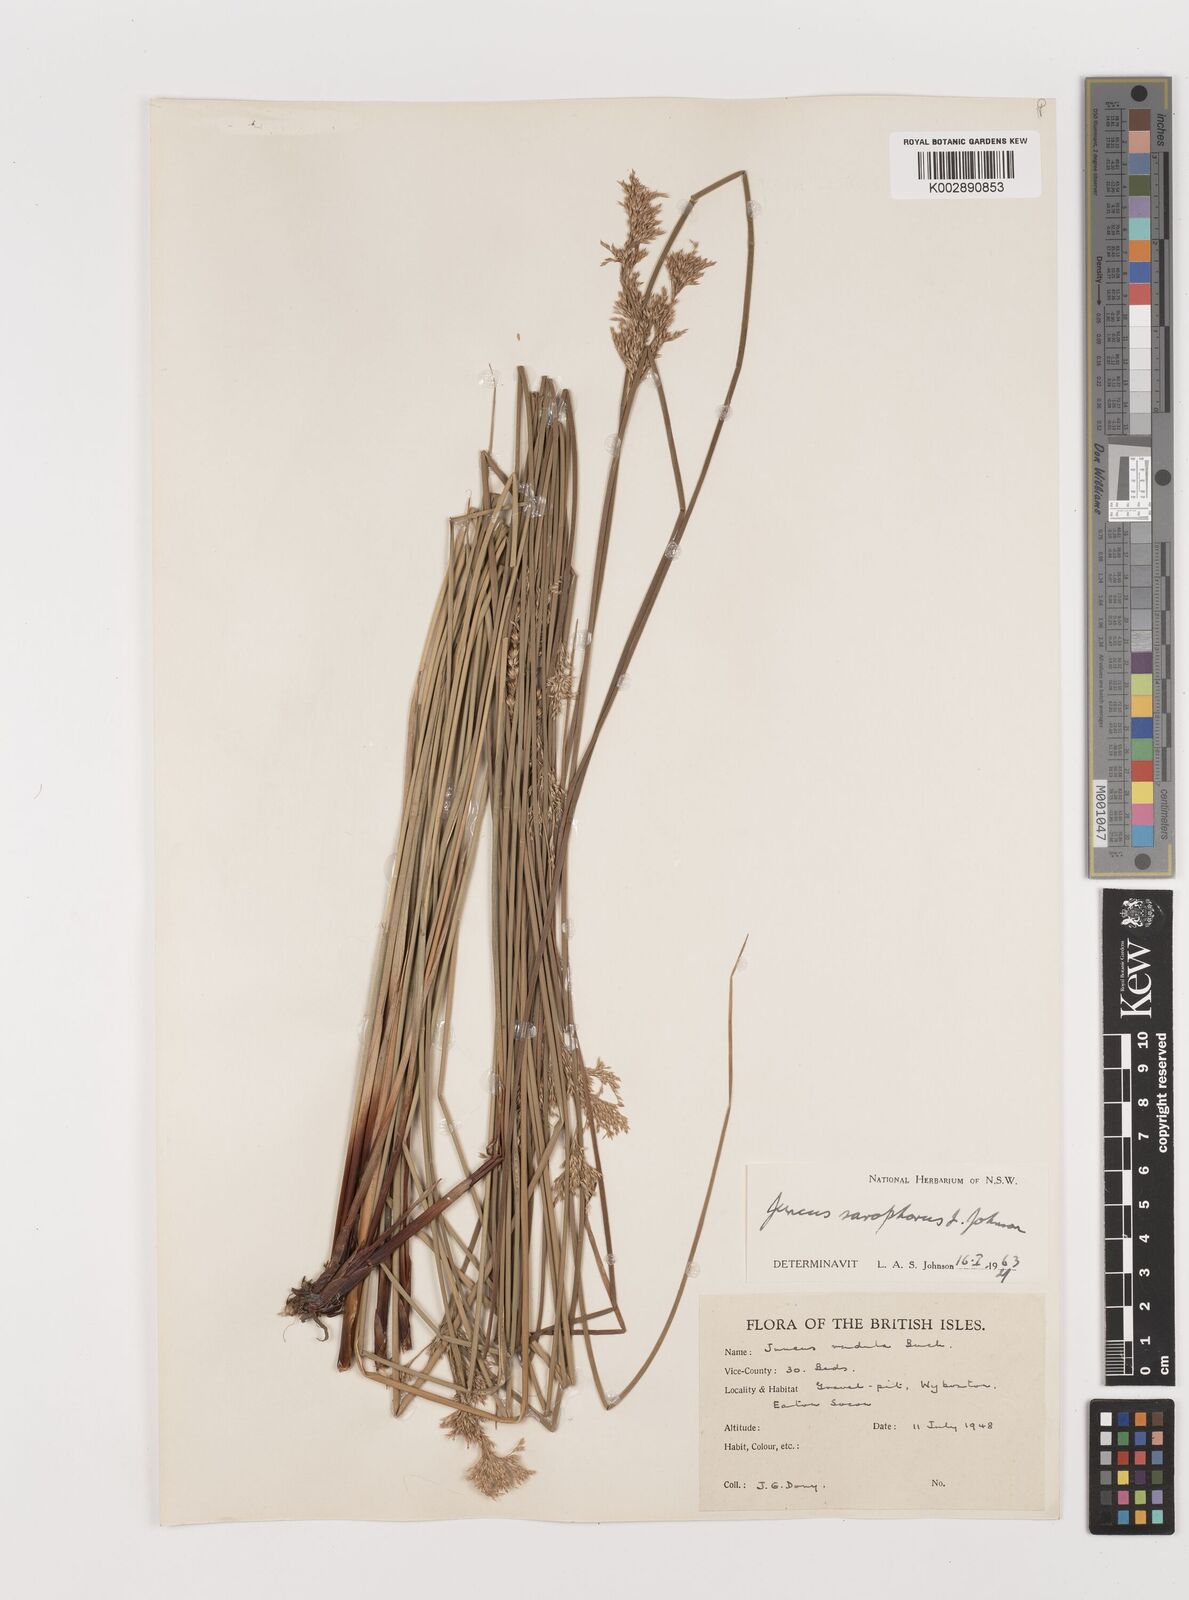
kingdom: Plantae
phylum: Tracheophyta
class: Liliopsida
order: Poales
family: Juncaceae
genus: Juncus
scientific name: Juncus sarophorus
